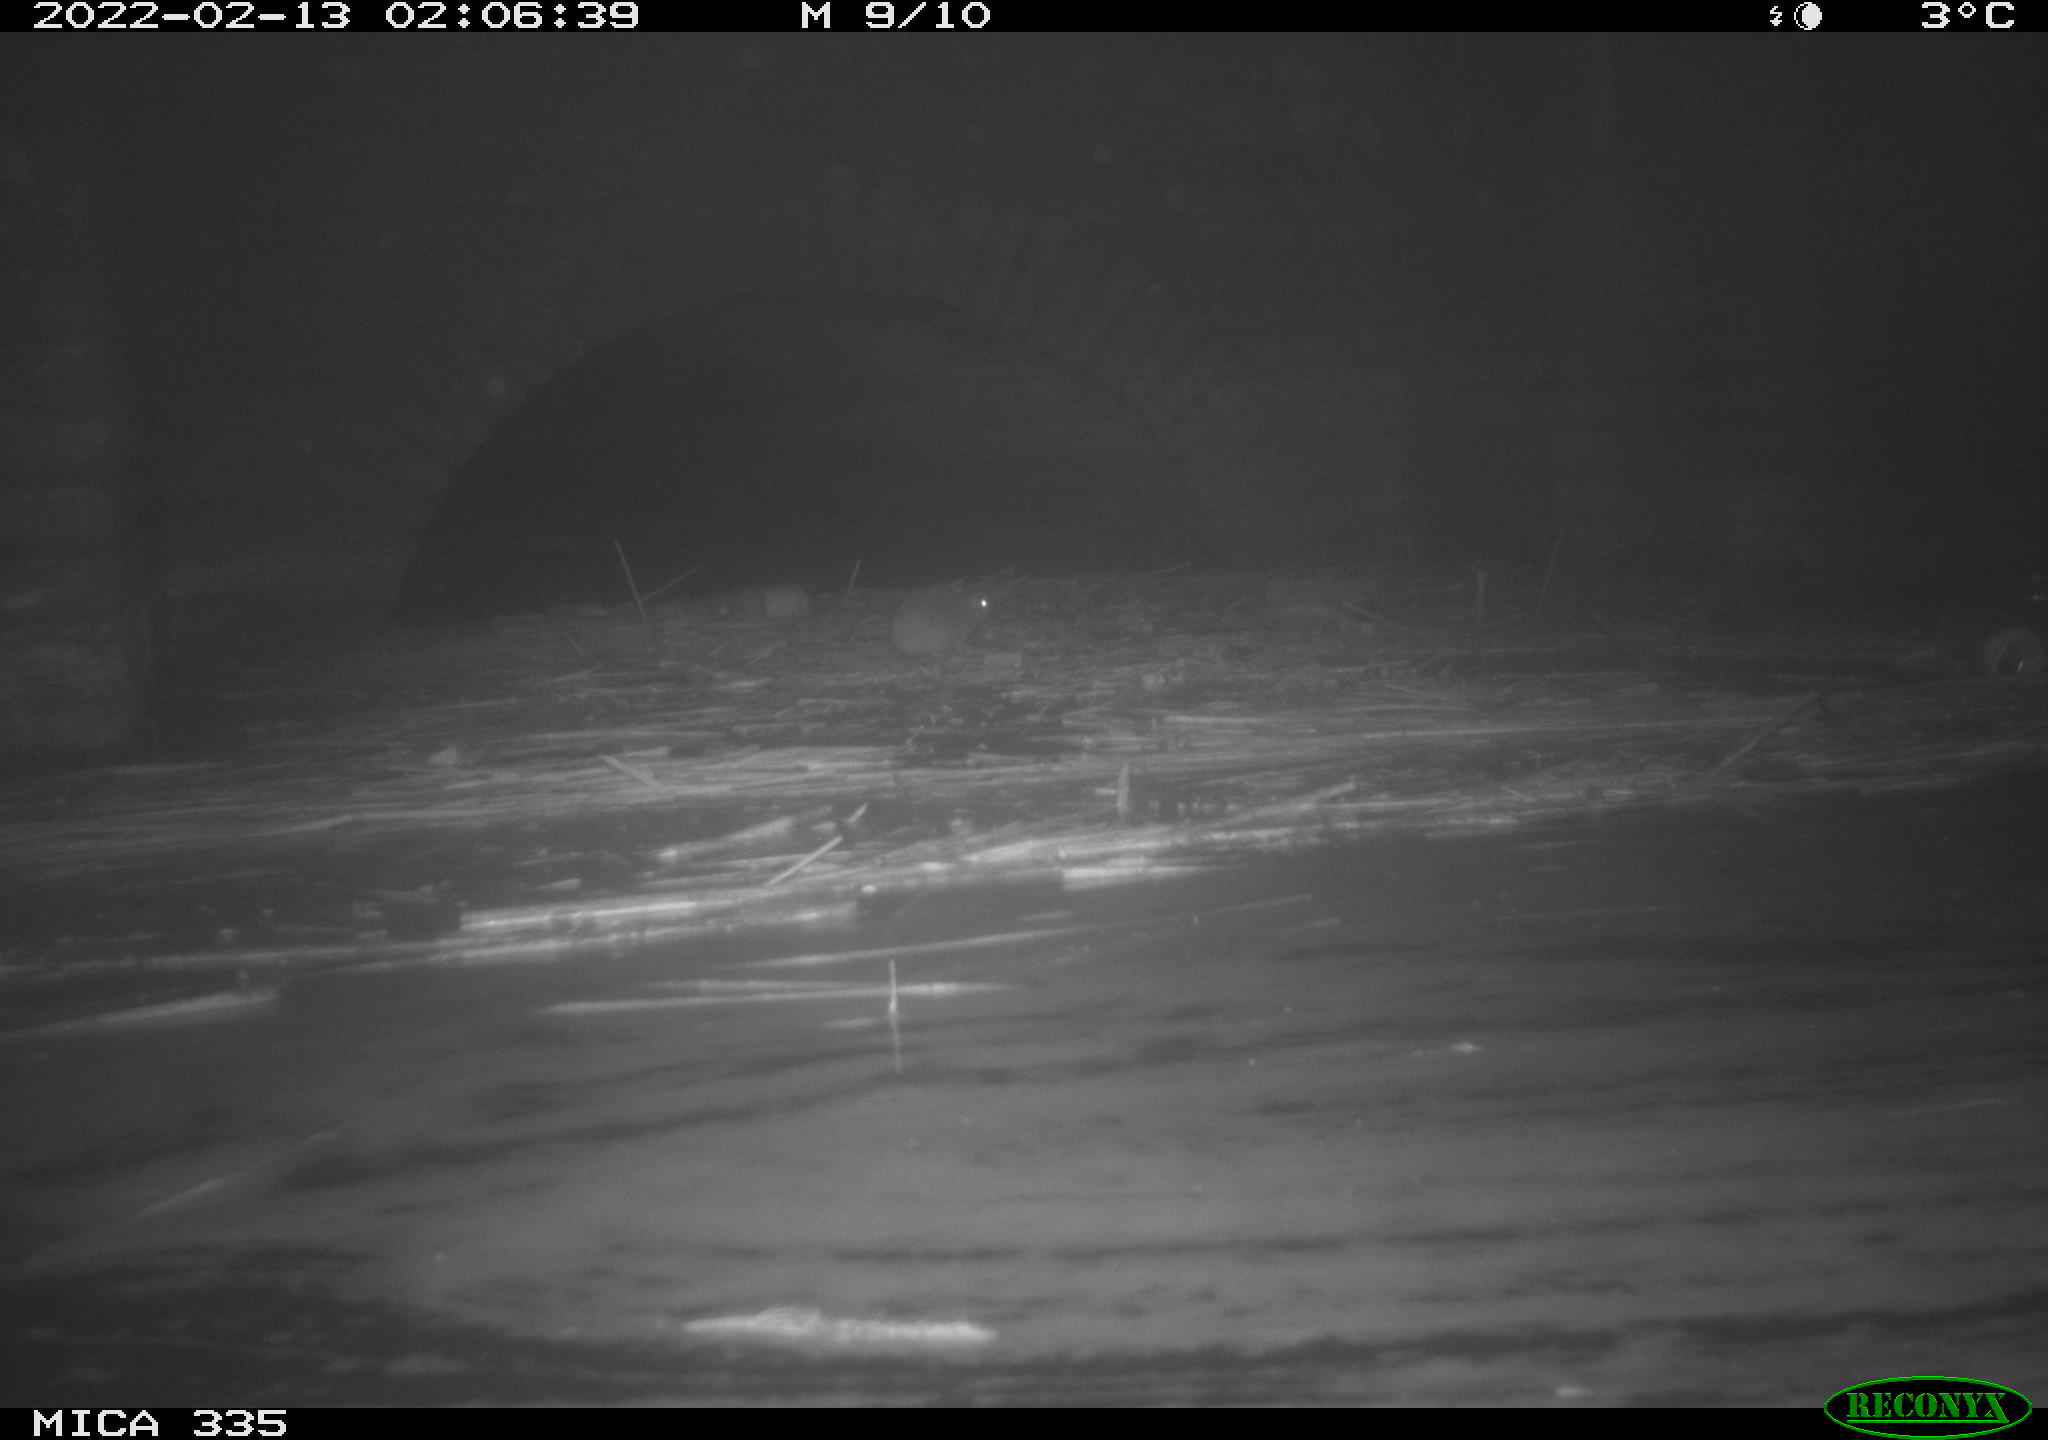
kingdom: Animalia
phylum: Chordata
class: Mammalia
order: Rodentia
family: Muridae
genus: Rattus
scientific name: Rattus norvegicus
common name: Brown rat
